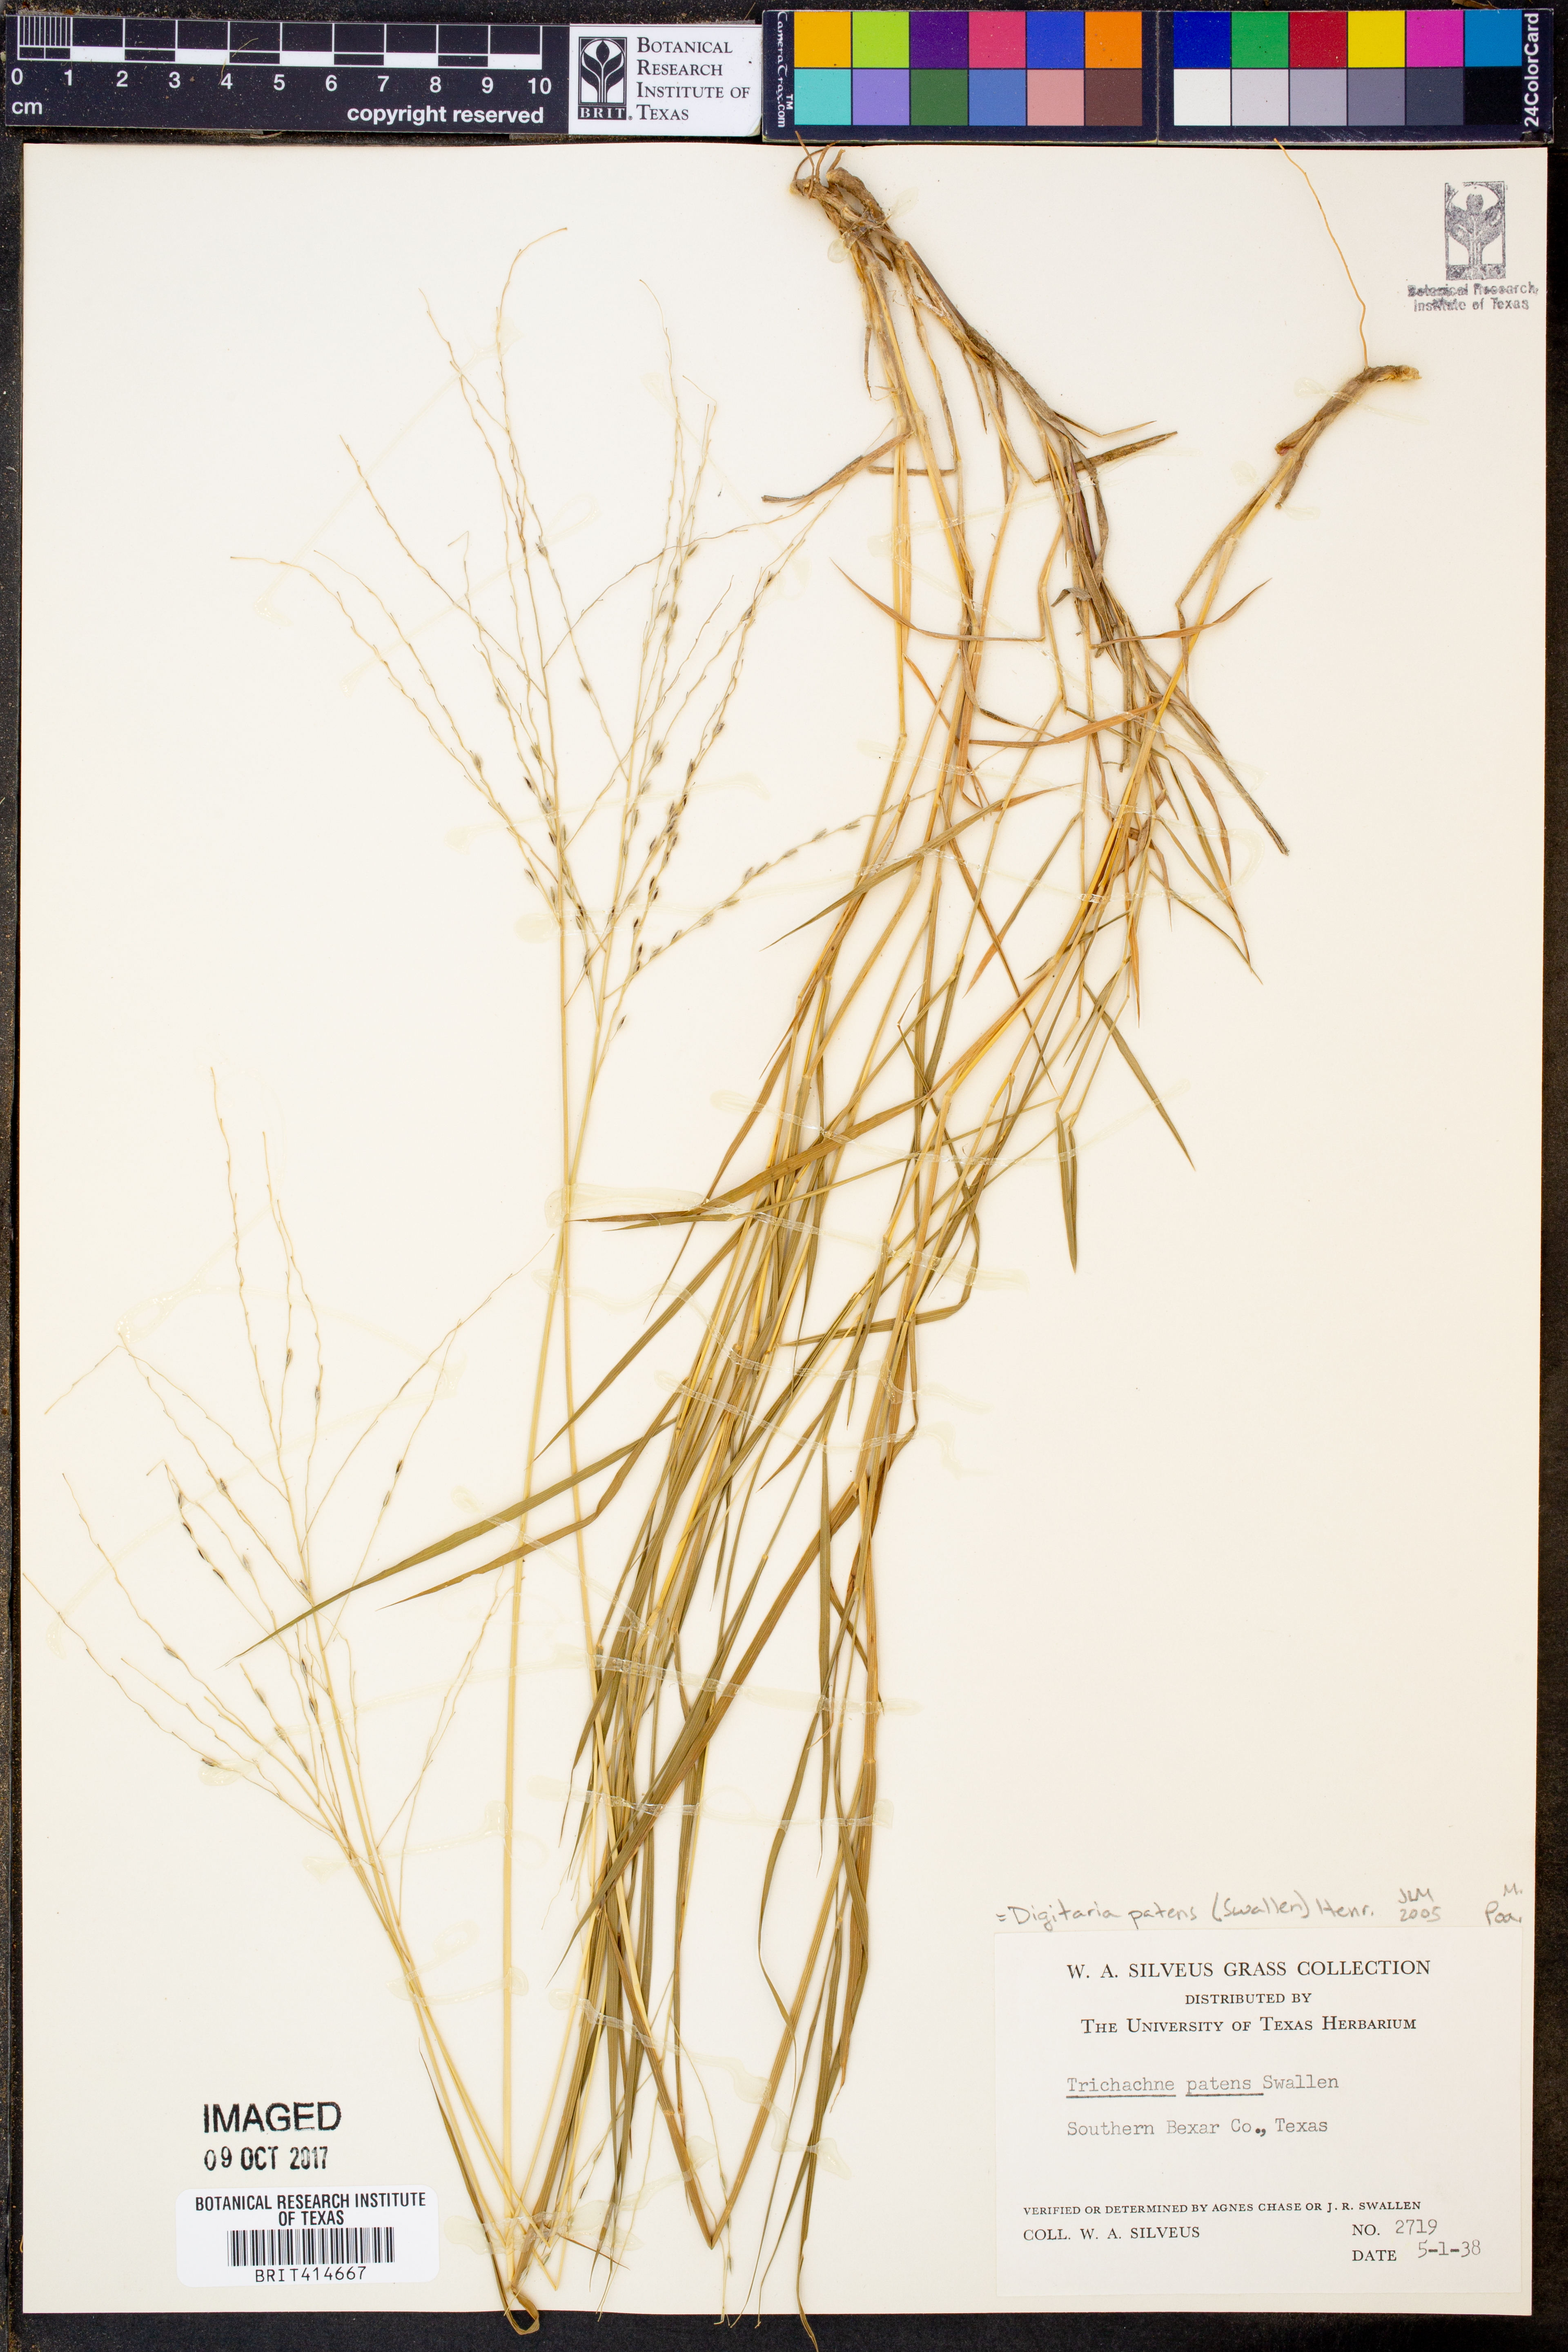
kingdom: Plantae
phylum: Tracheophyta
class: Liliopsida
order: Poales
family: Poaceae
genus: Digitaria
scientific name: Digitaria patens
